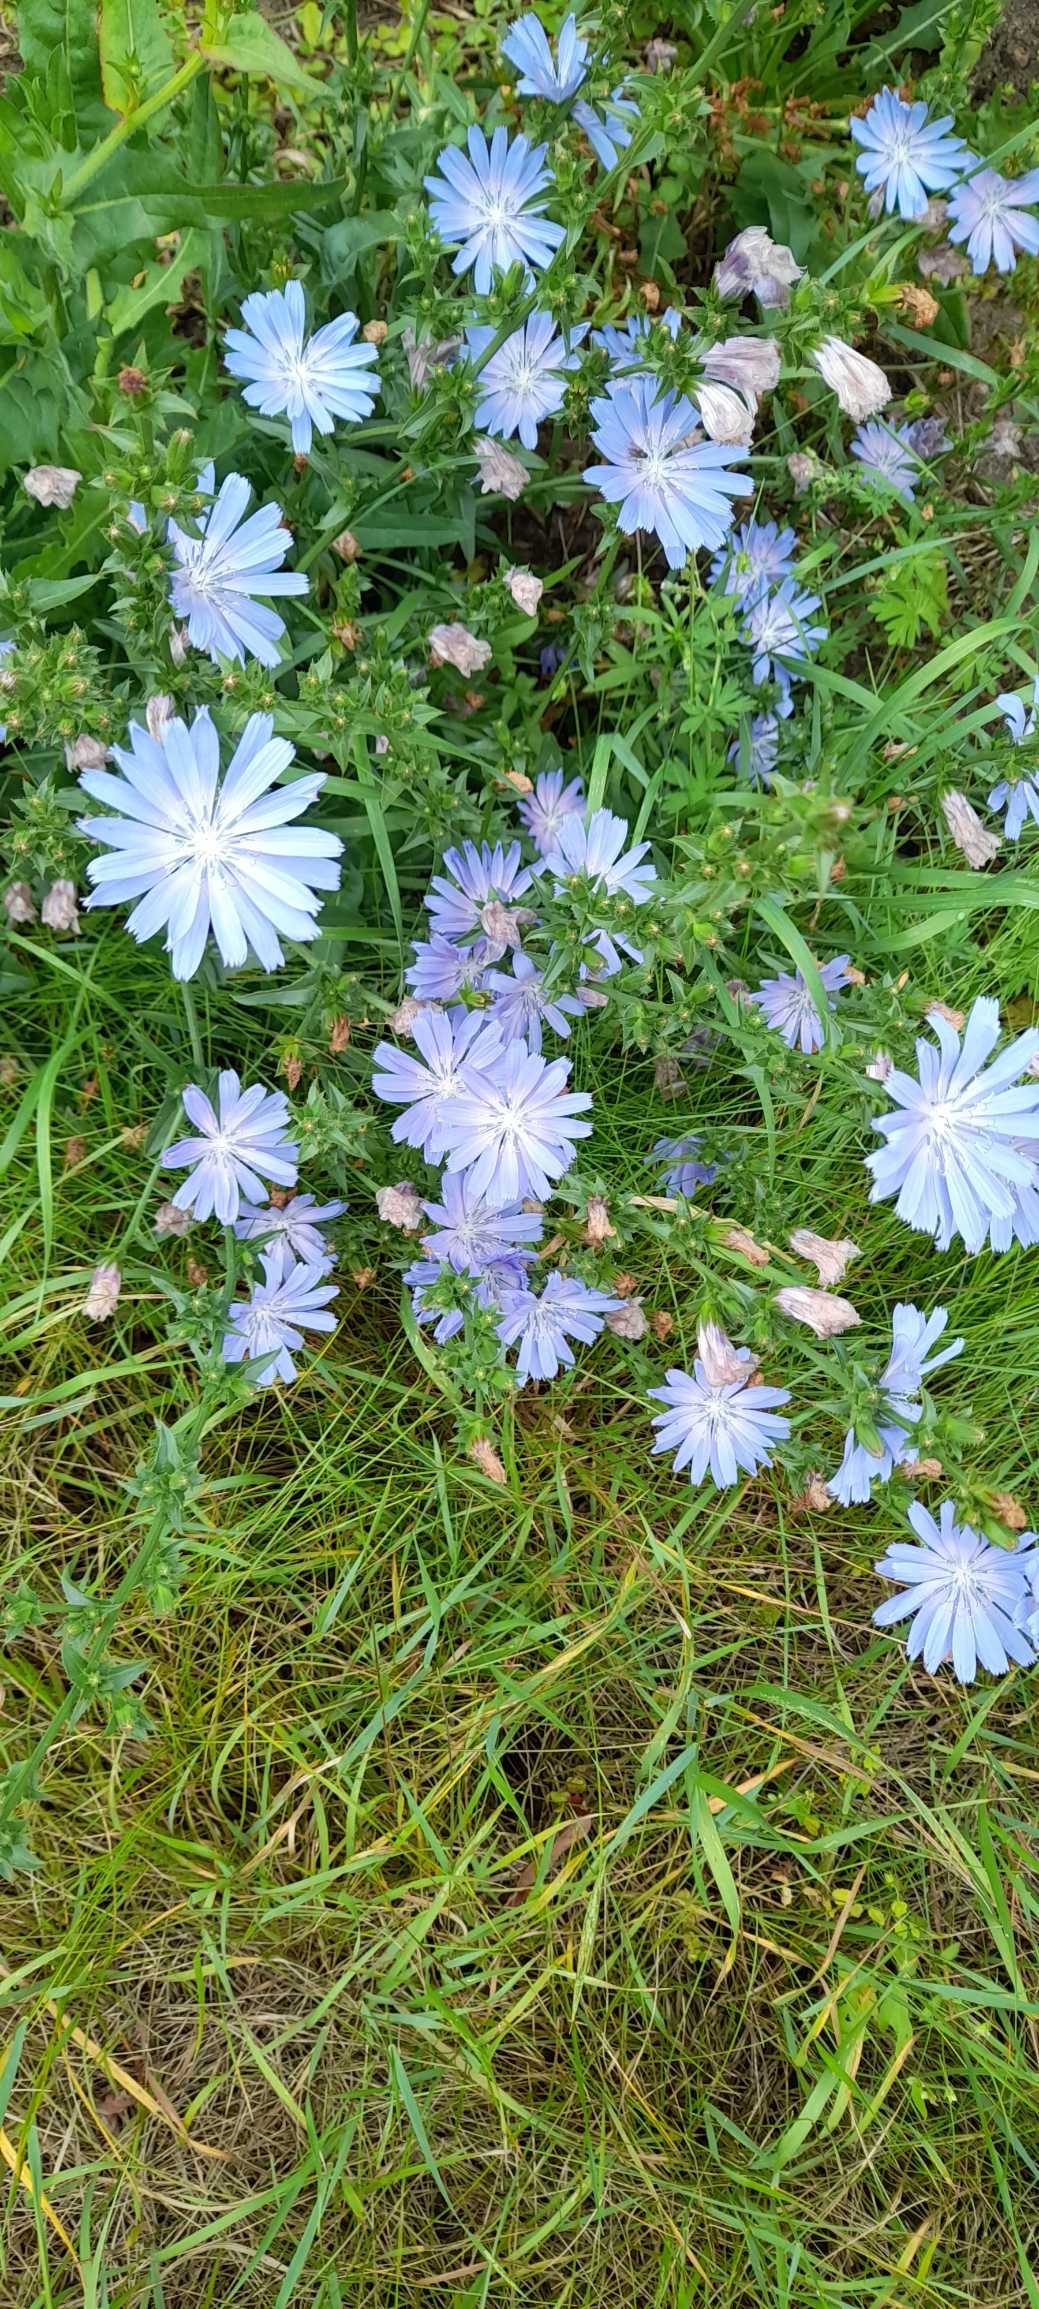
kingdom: Plantae
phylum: Tracheophyta
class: Magnoliopsida
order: Asterales
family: Asteraceae
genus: Cichorium
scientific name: Cichorium intybus
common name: Cikorie
